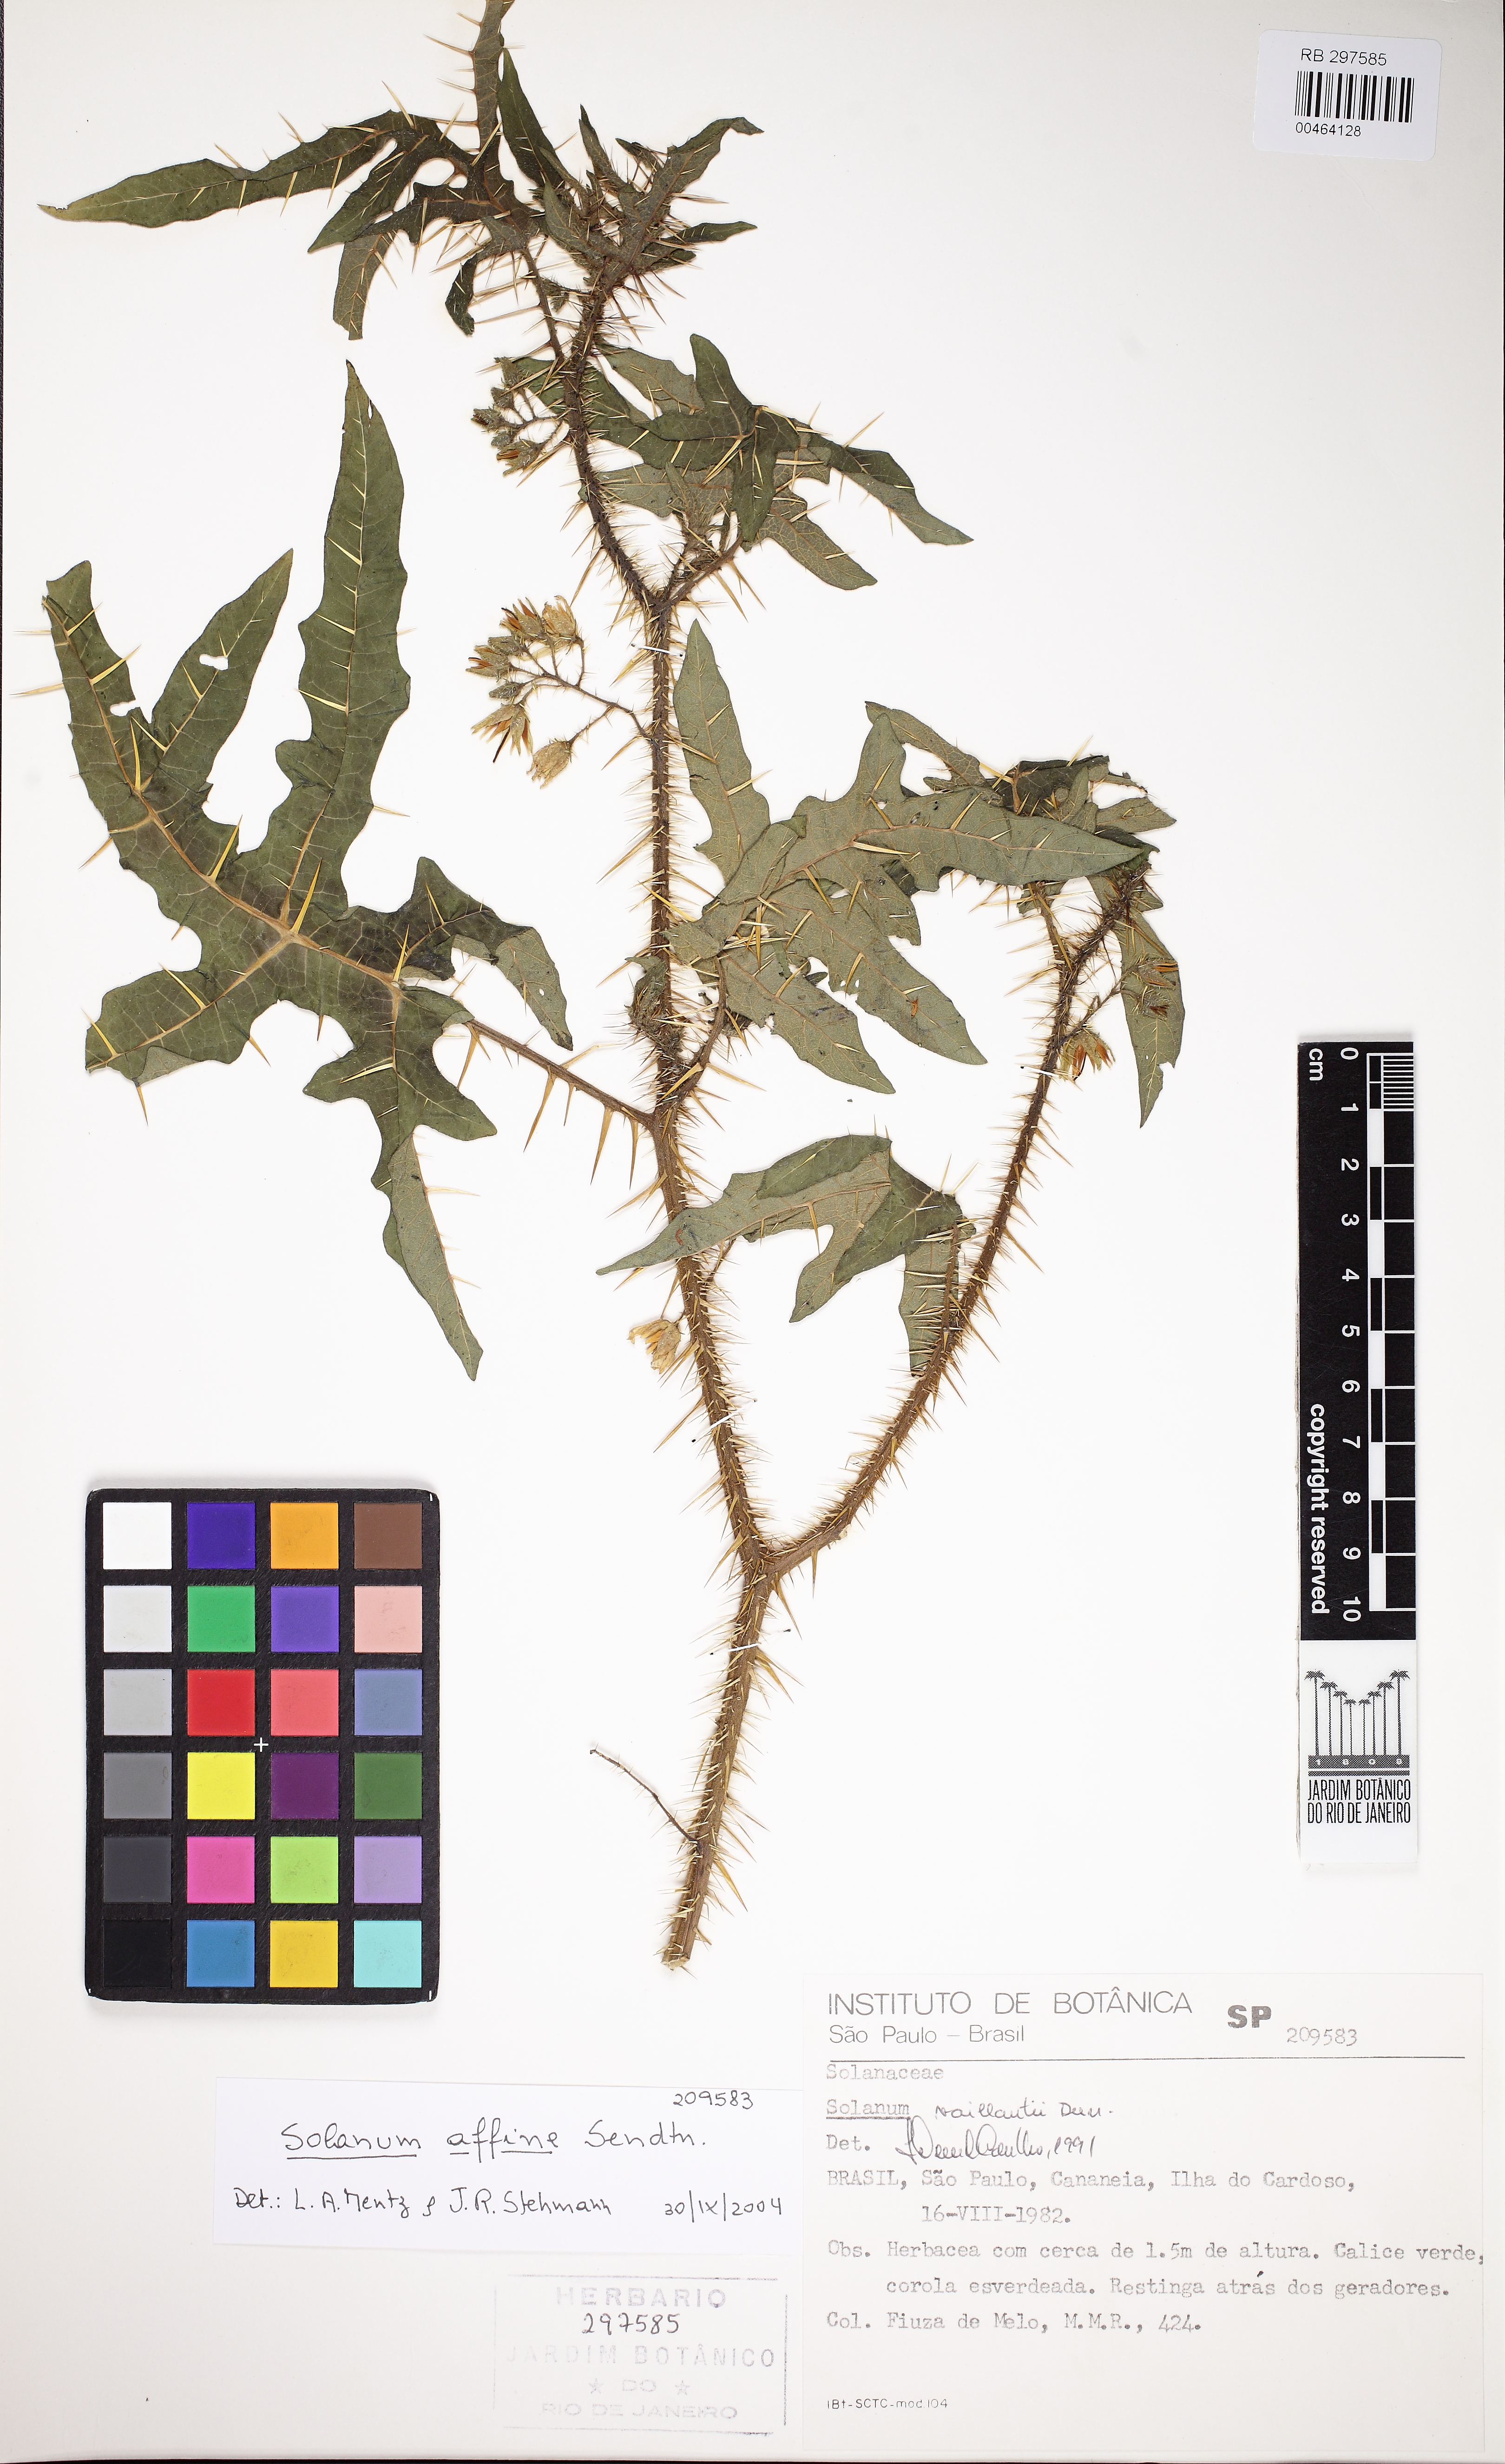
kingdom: Plantae
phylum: Tracheophyta
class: Magnoliopsida
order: Solanales
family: Solanaceae
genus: Solanum
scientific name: Solanum affine
